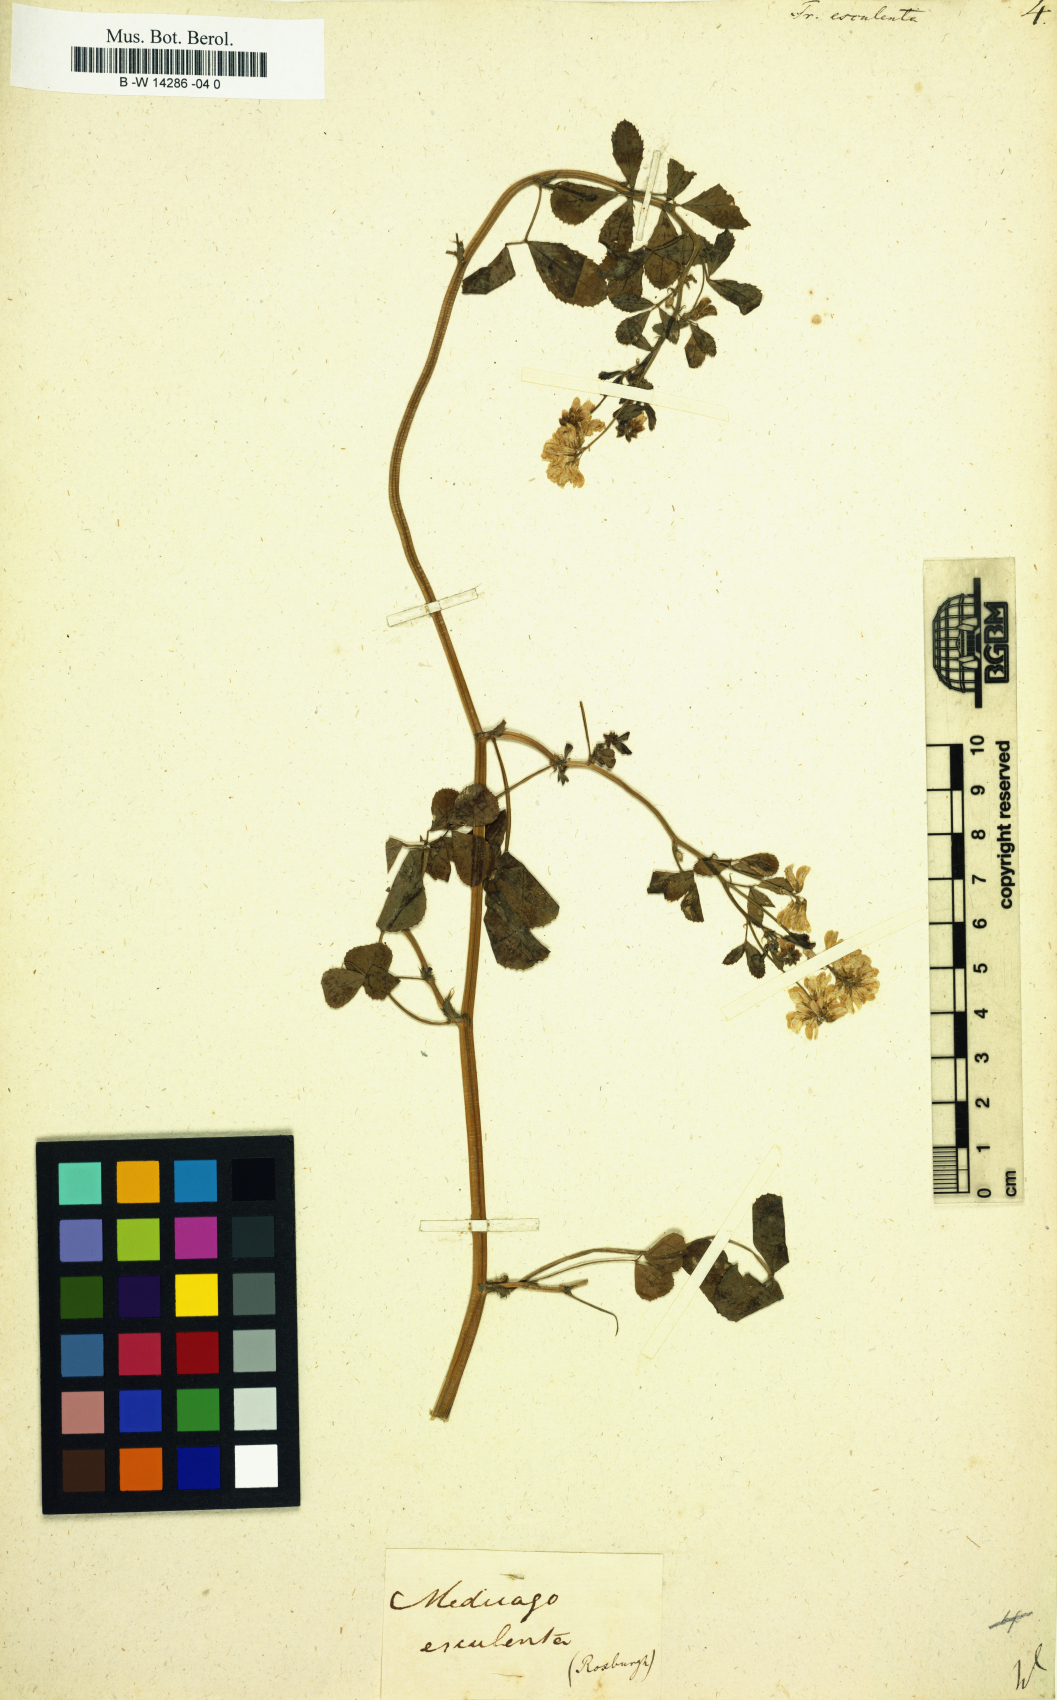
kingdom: Plantae
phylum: Tracheophyta
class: Magnoliopsida
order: Fabales
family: Fabaceae
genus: Trigonella
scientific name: Trigonella esculenta
